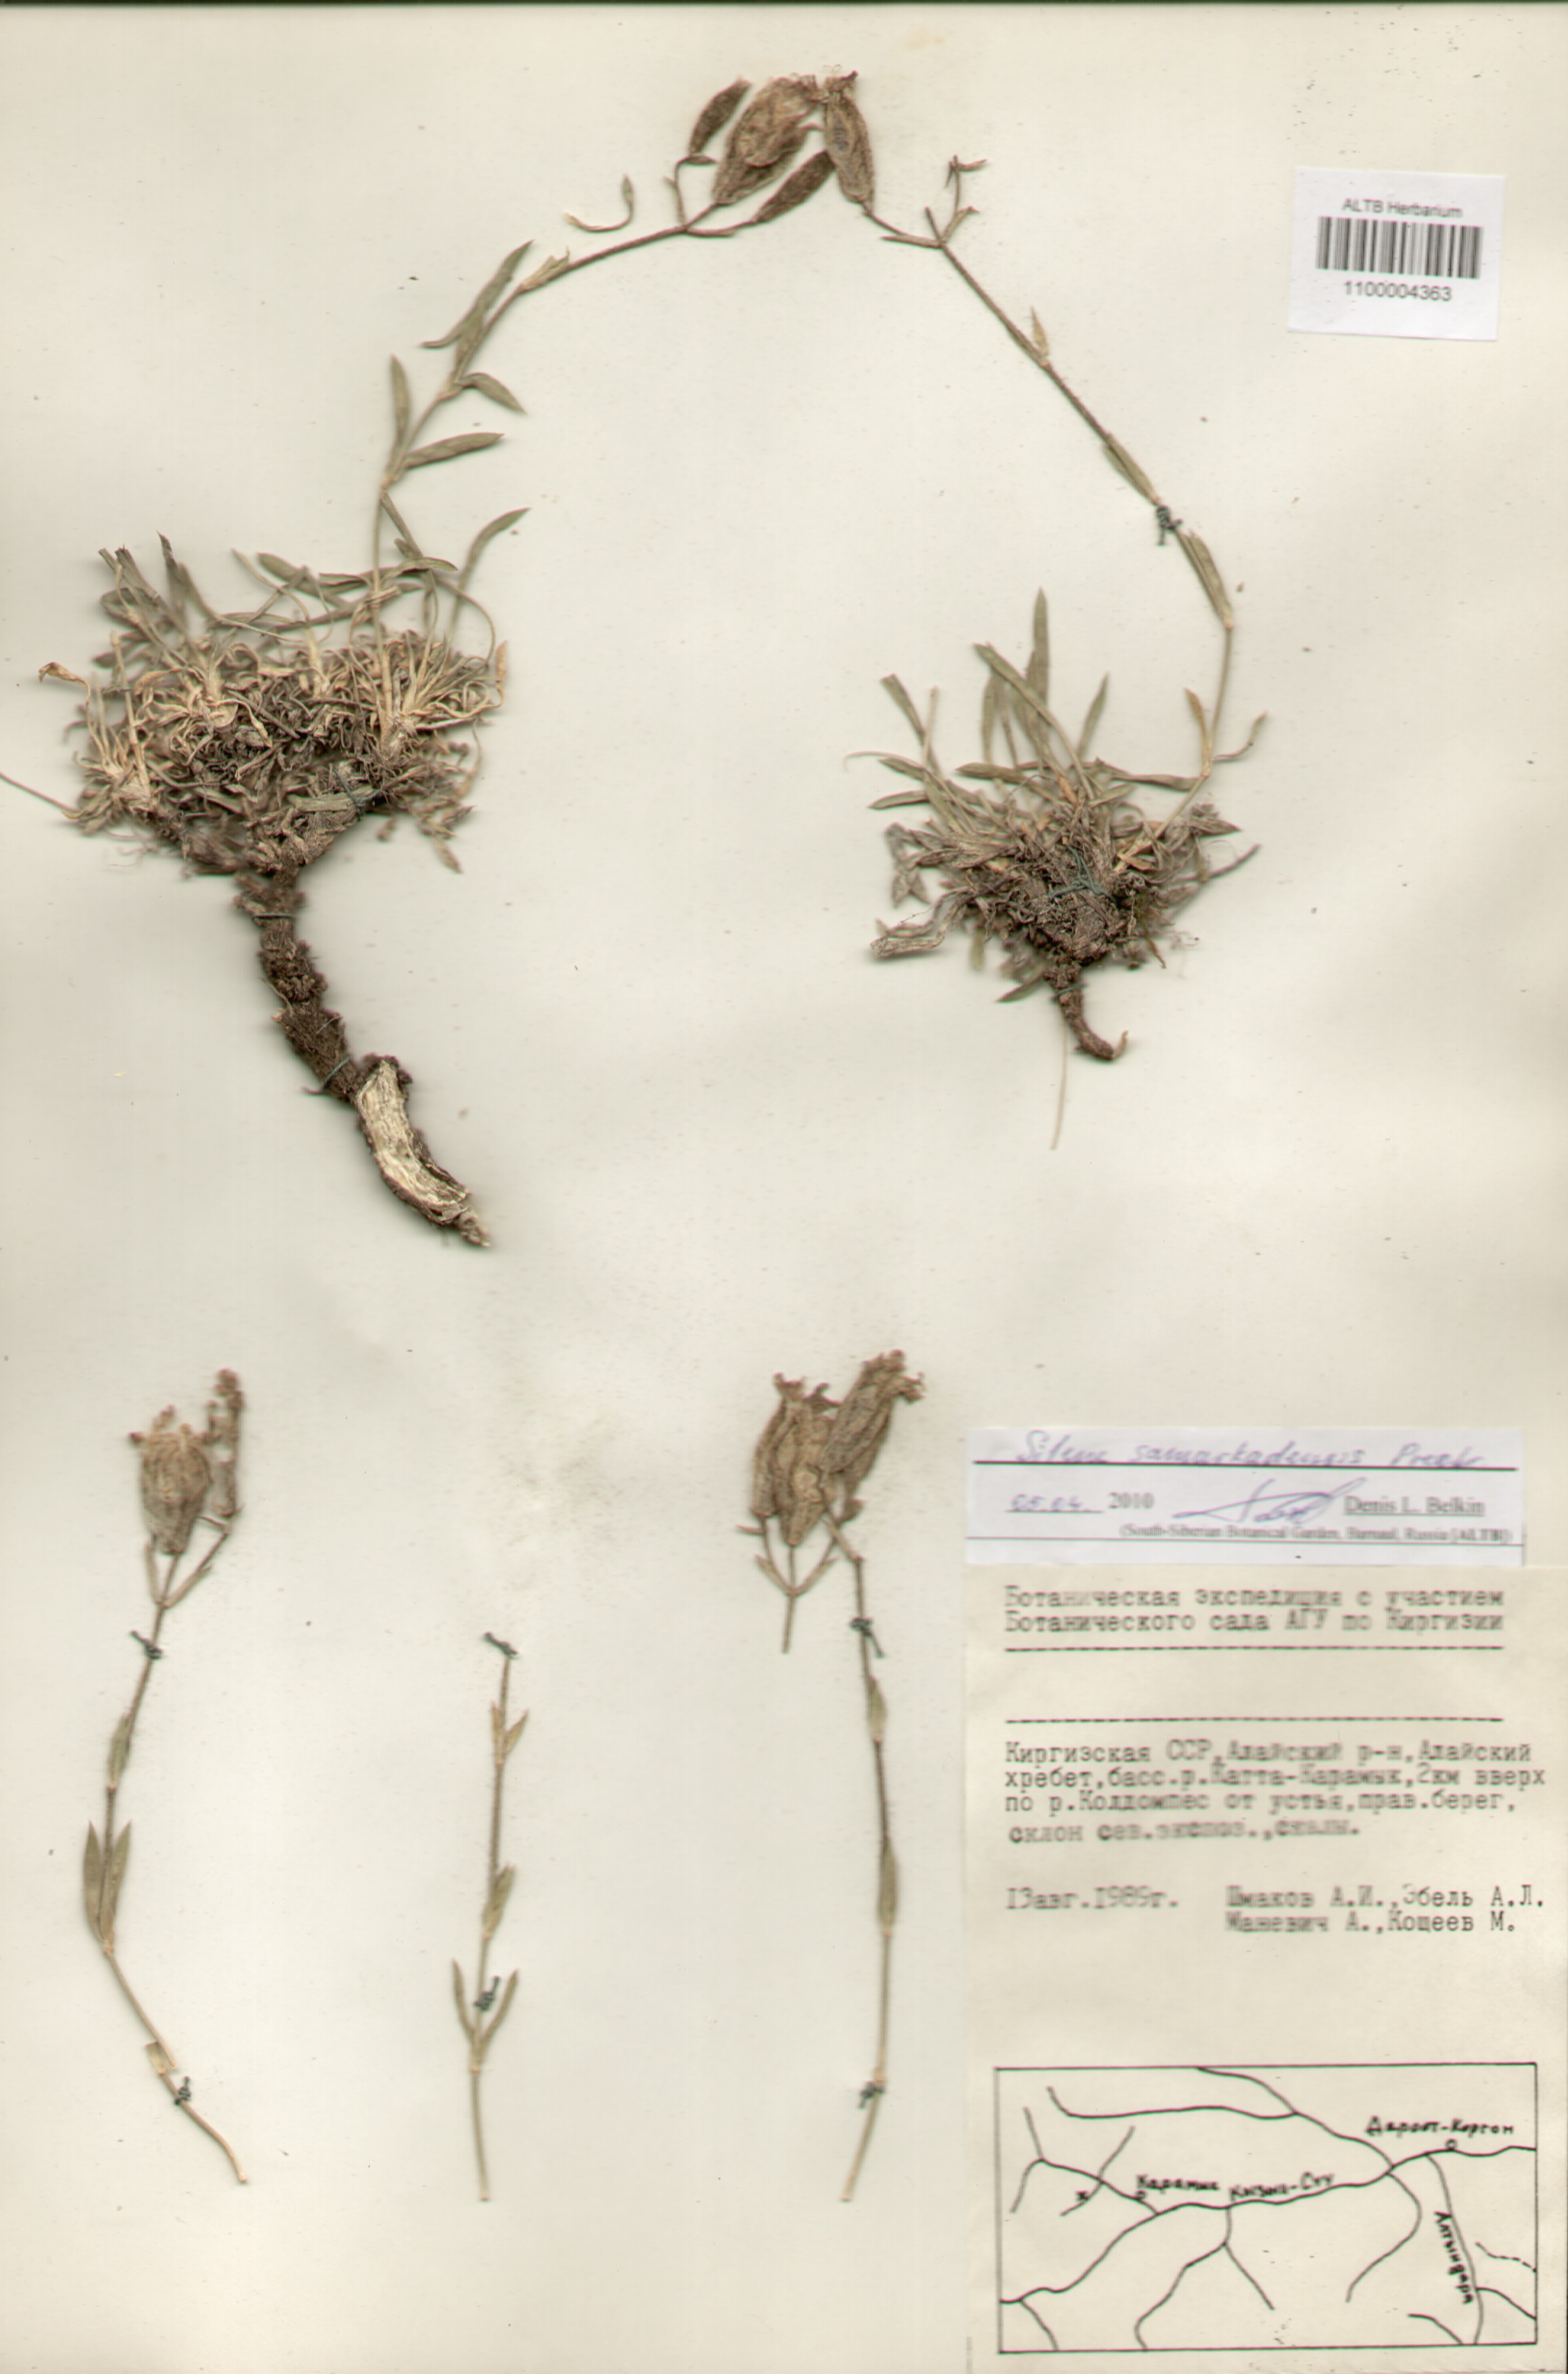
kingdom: Plantae
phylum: Tracheophyta
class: Magnoliopsida
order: Caryophyllales
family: Caryophyllaceae
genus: Silene
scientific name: Silene samarkandensis
